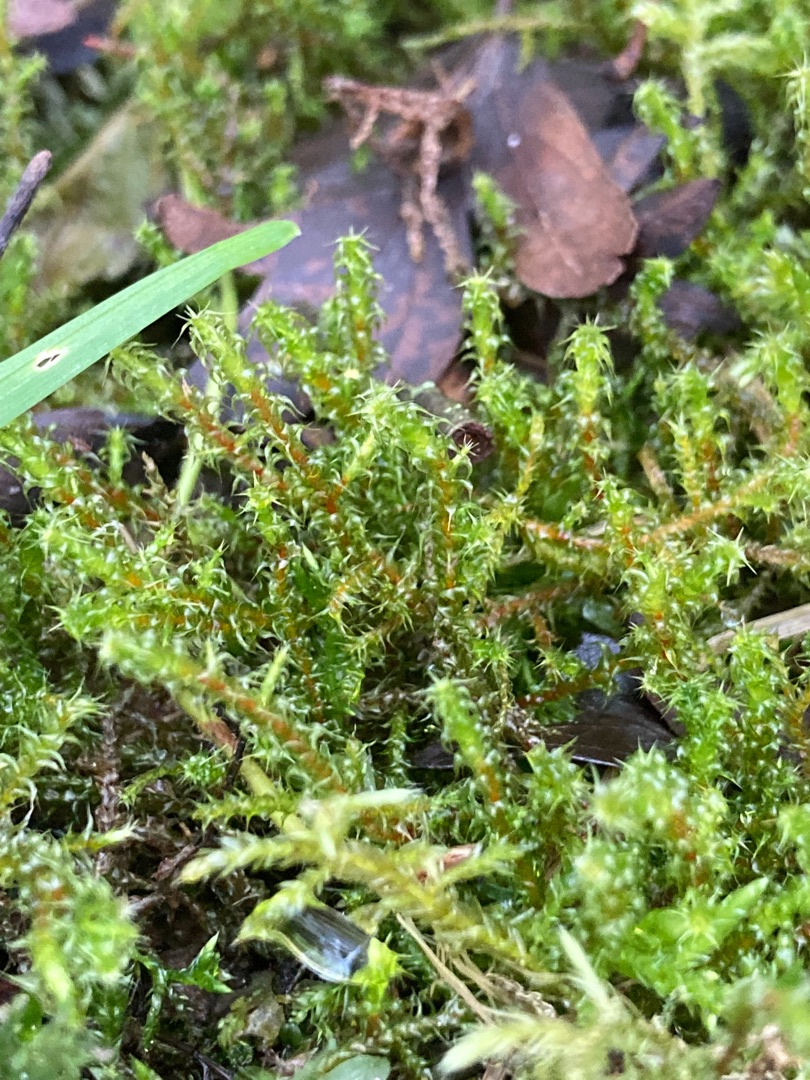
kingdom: Plantae
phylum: Bryophyta
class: Bryopsida
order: Hypnales
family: Hylocomiaceae
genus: Rhytidiadelphus
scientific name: Rhytidiadelphus squarrosus
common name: Plæne-kransemos
